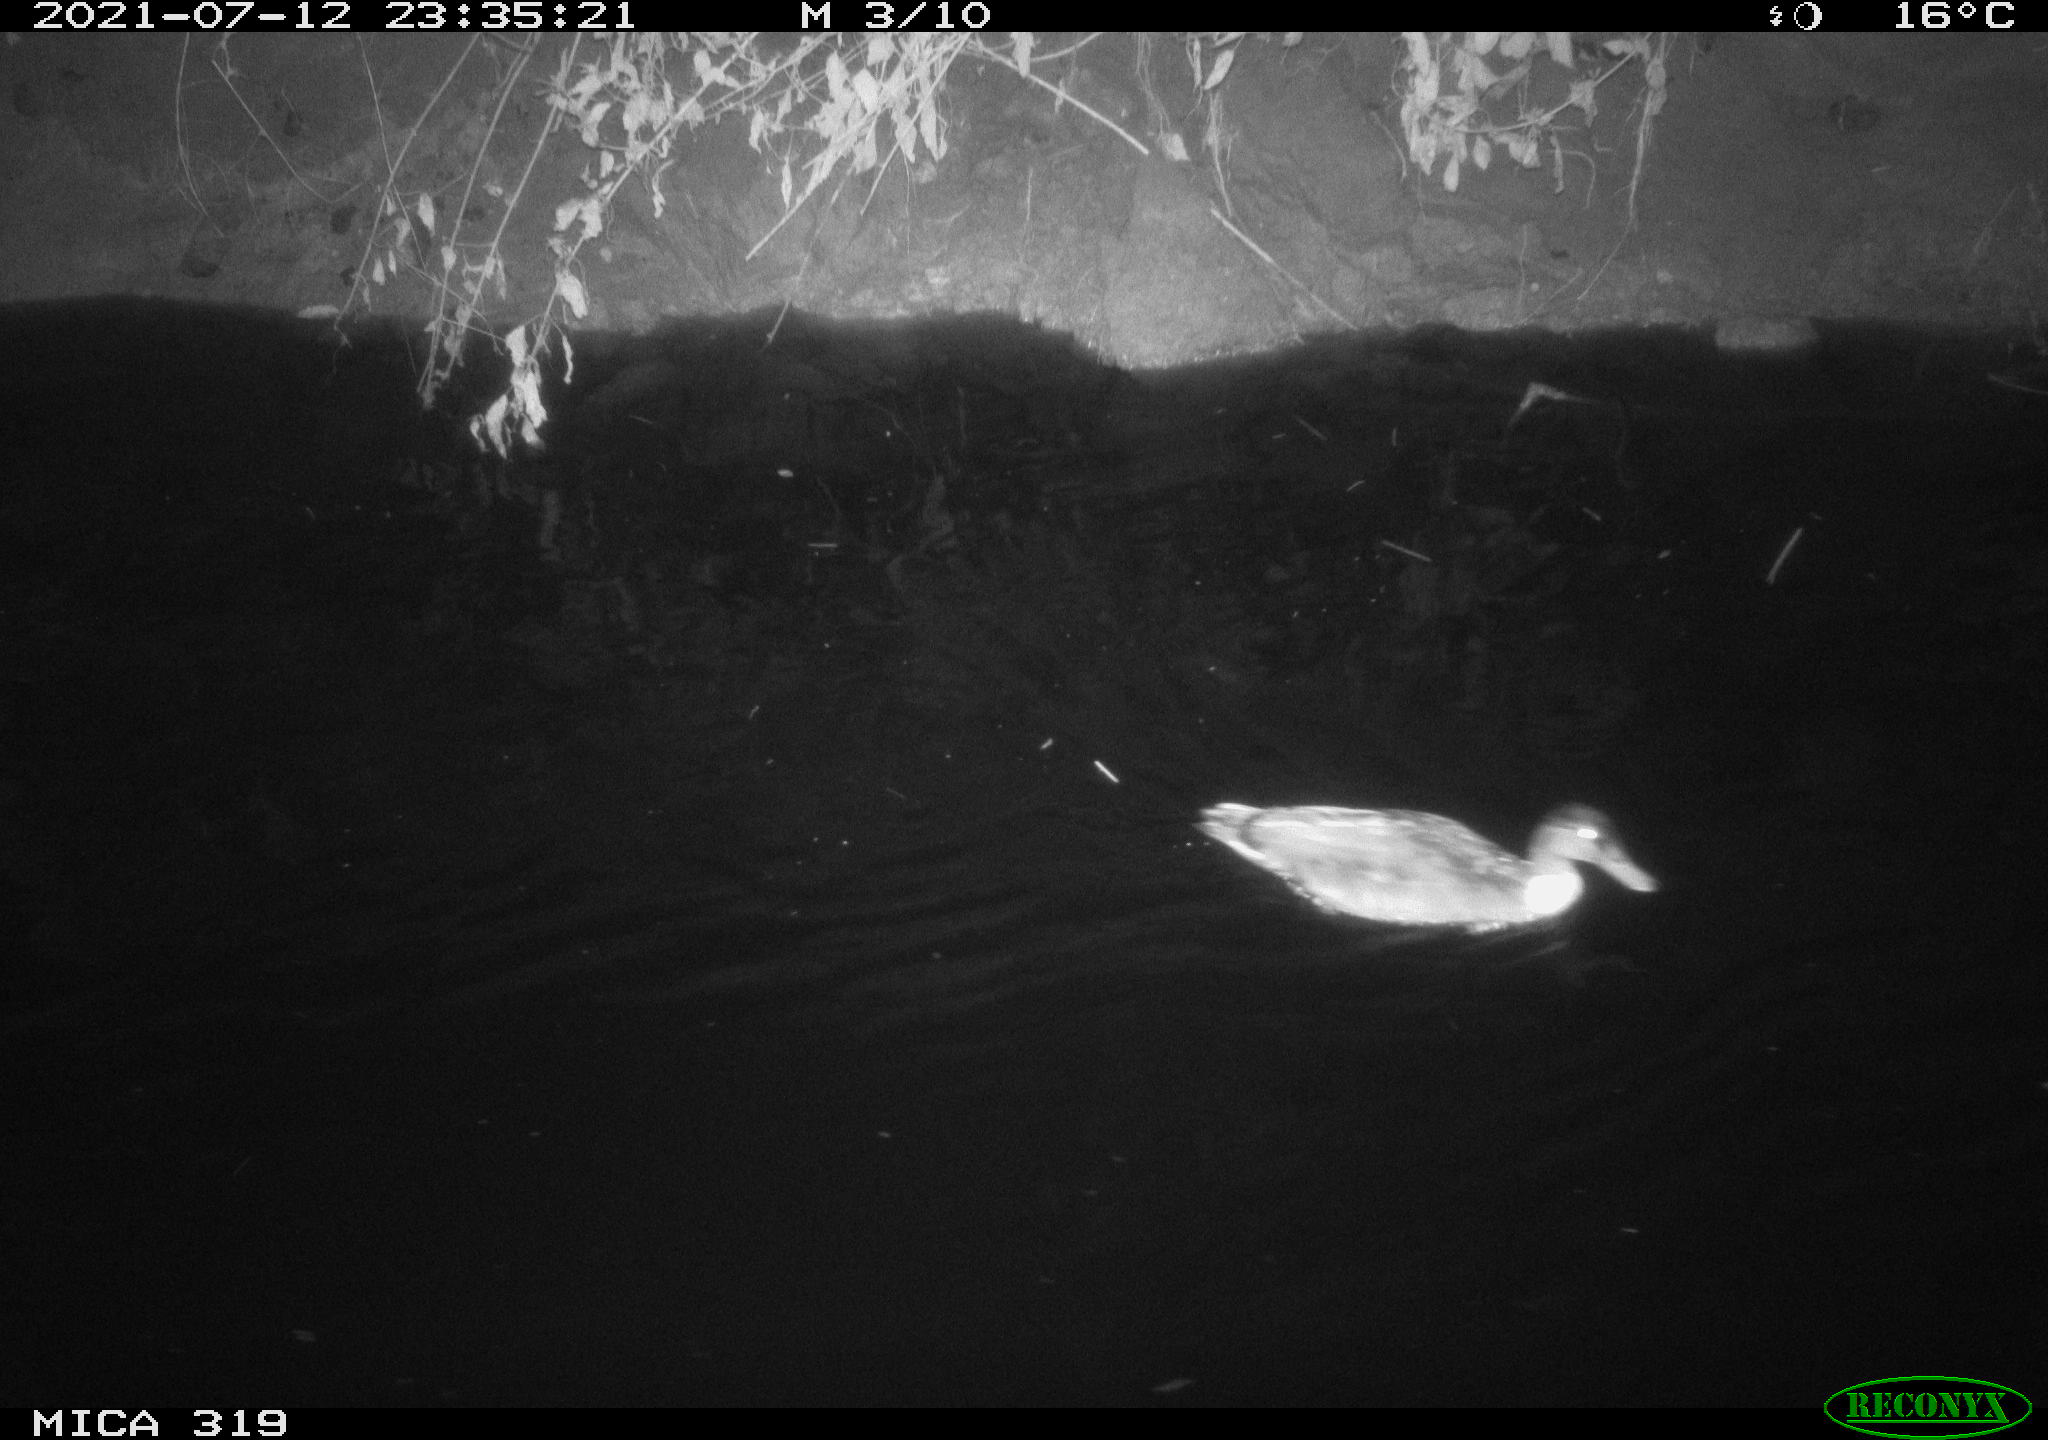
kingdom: Animalia
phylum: Chordata
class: Aves
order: Anseriformes
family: Anatidae
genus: Anas
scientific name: Anas platyrhynchos
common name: Mallard
